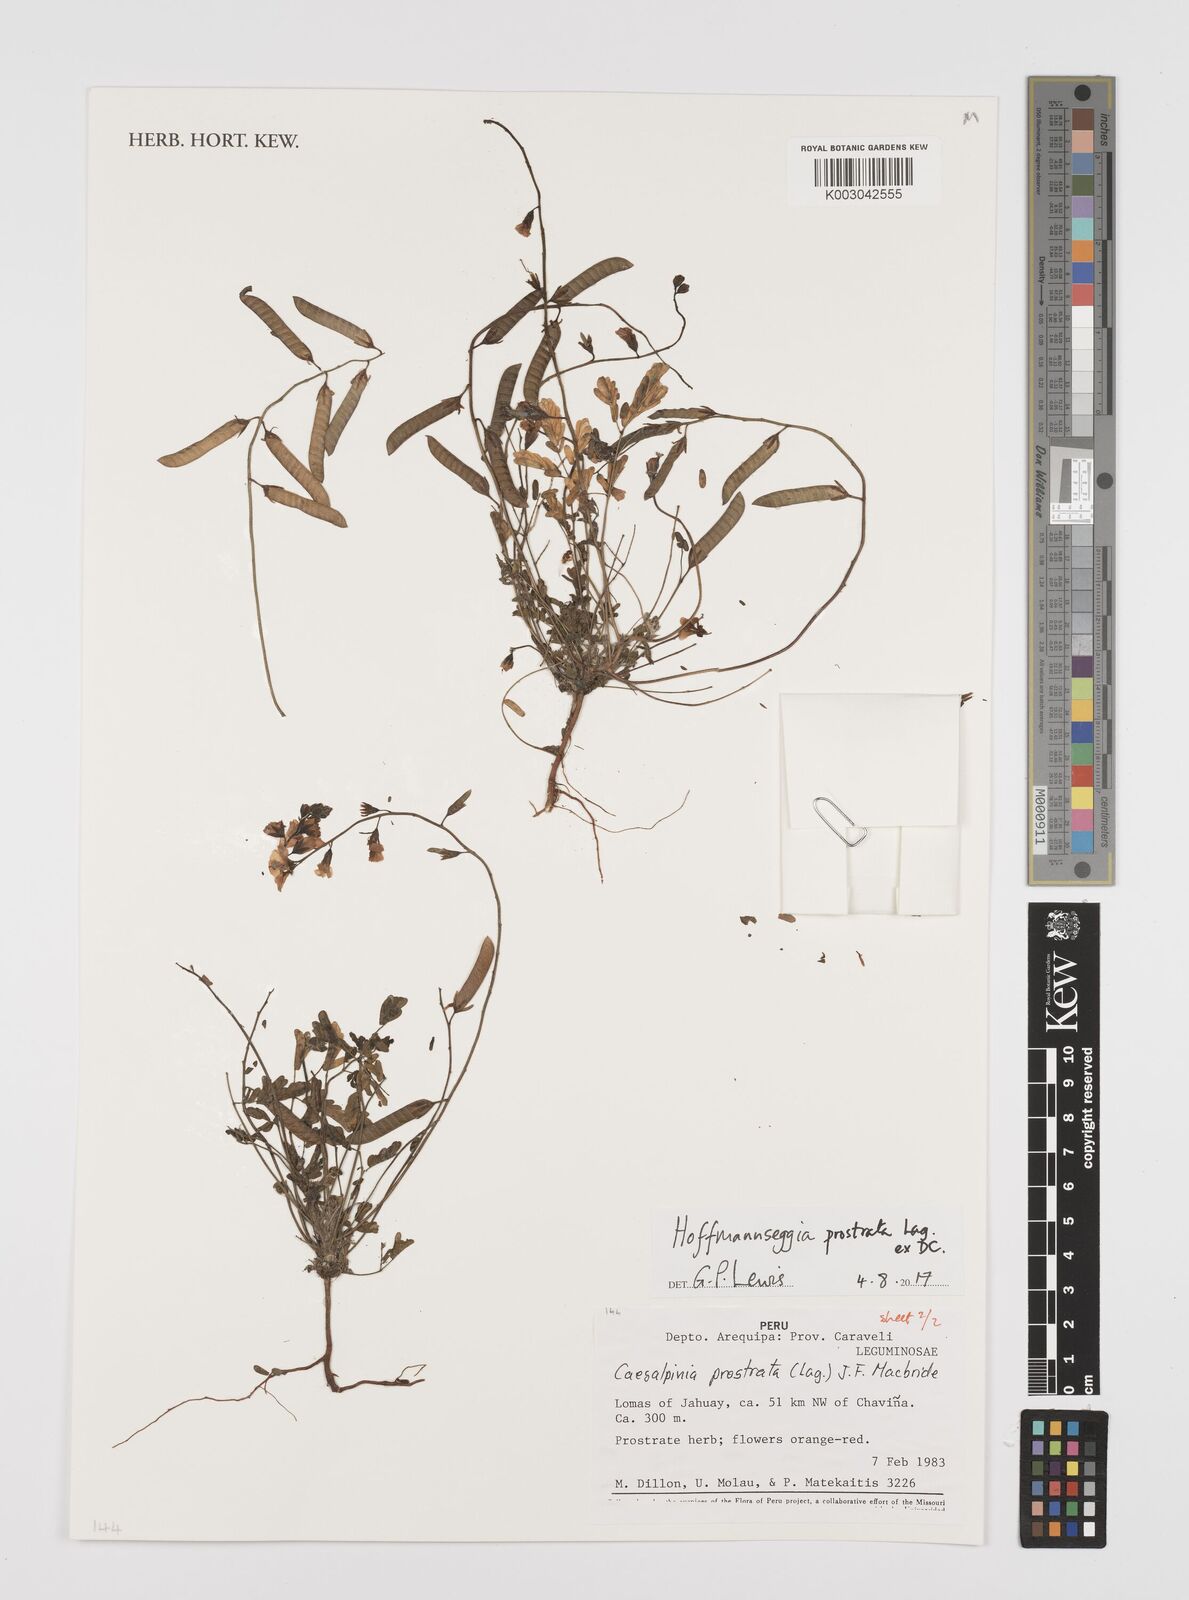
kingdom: Plantae
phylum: Tracheophyta
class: Magnoliopsida
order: Fabales
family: Fabaceae
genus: Hoffmannseggia
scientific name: Hoffmannseggia prostrata
